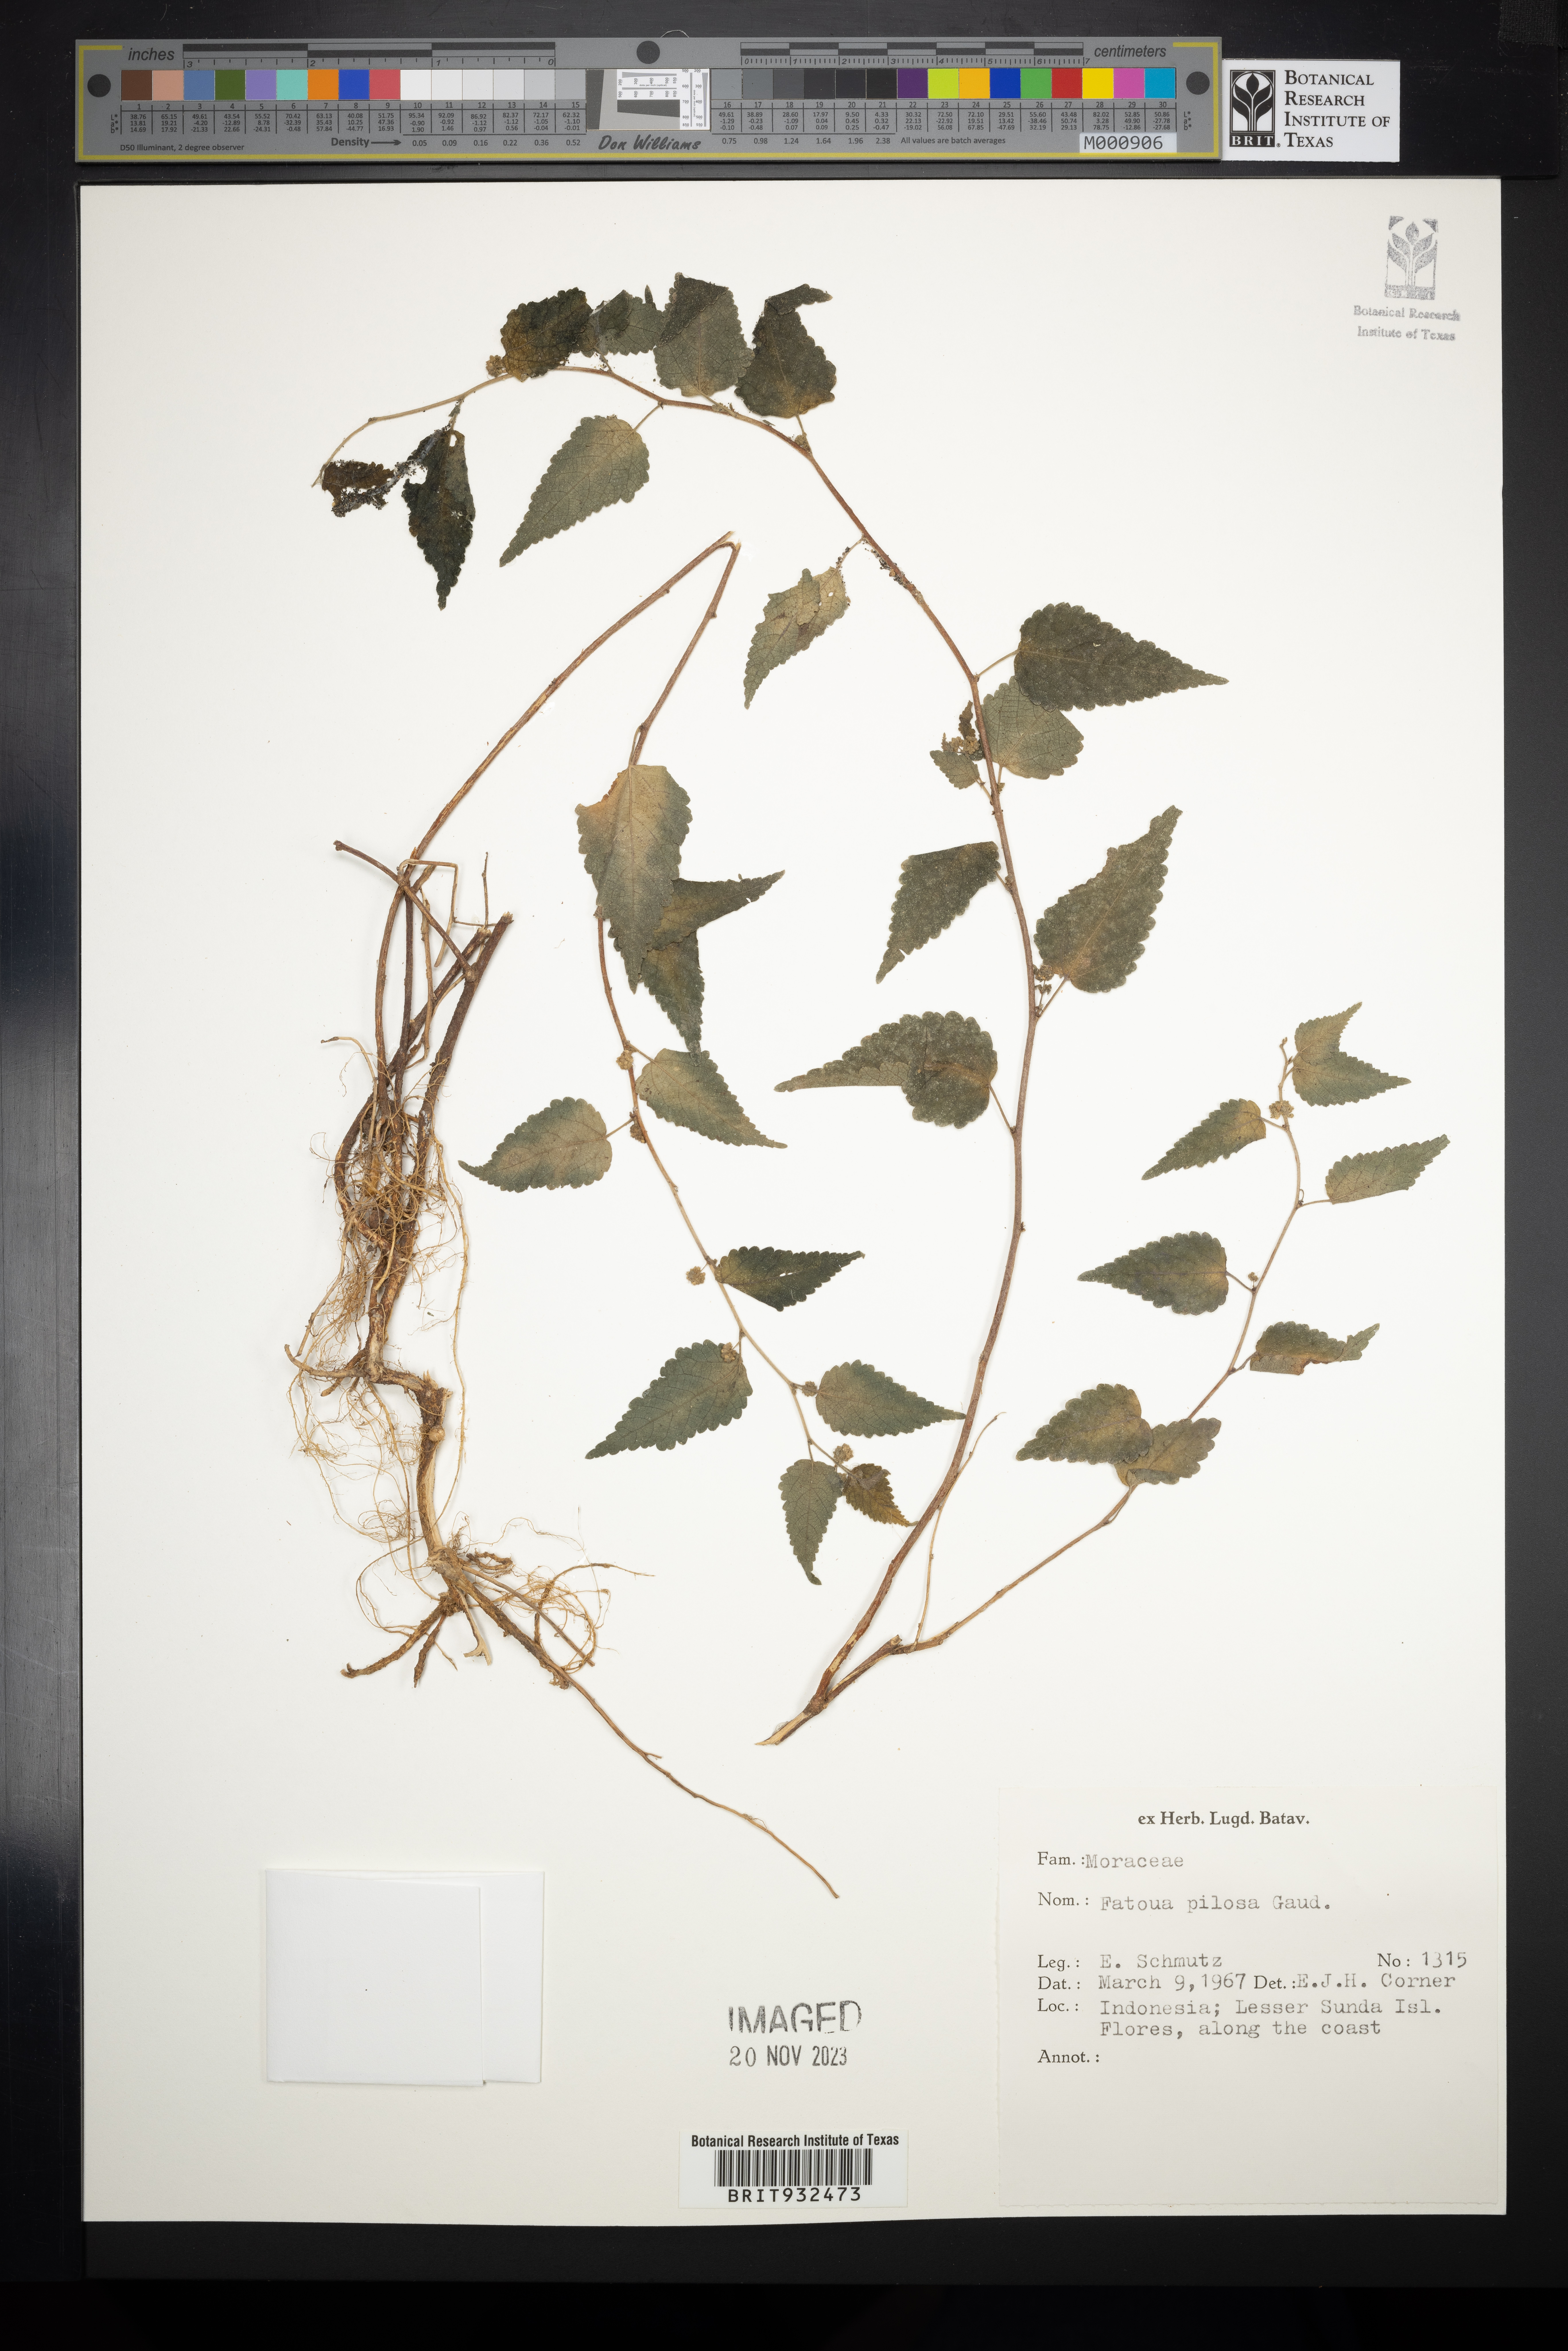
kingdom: Plantae
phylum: Tracheophyta
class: Magnoliopsida
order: Rosales
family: Moraceae
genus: Fatoua
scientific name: Fatoua
